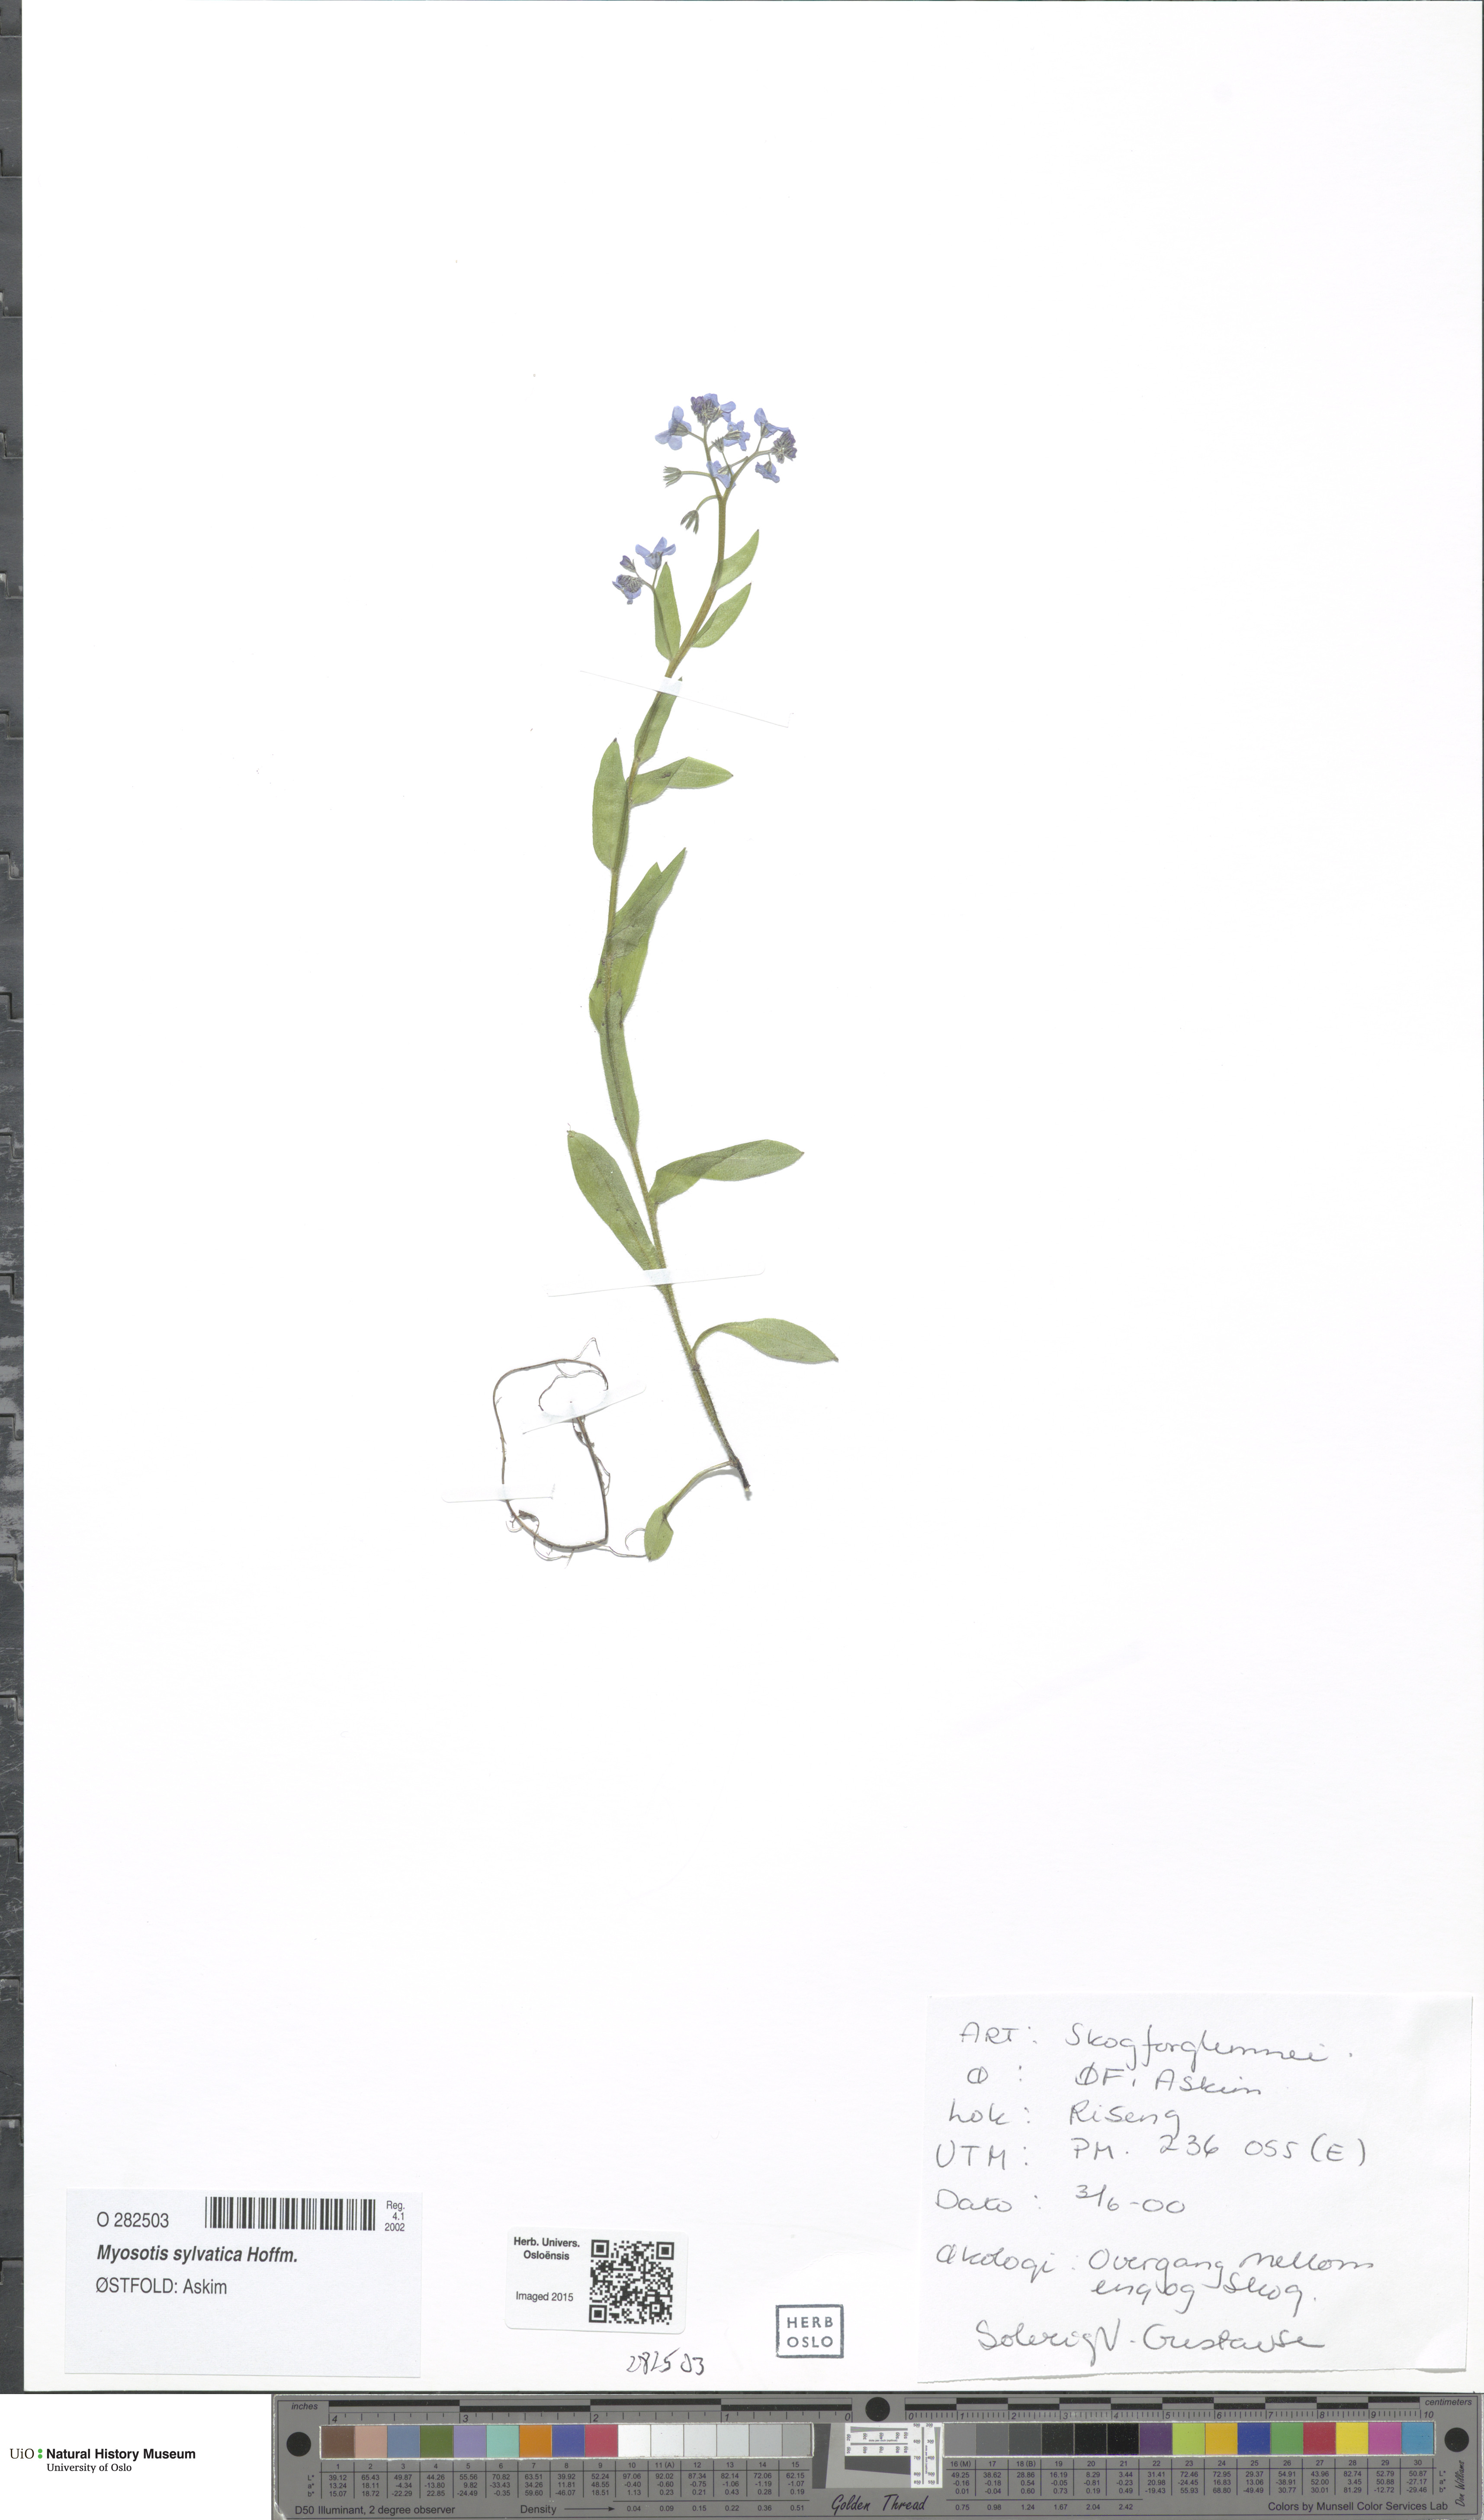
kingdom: Plantae
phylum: Tracheophyta
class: Magnoliopsida
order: Boraginales
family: Boraginaceae
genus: Myosotis
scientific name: Myosotis sylvatica
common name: Wood forget-me-not
